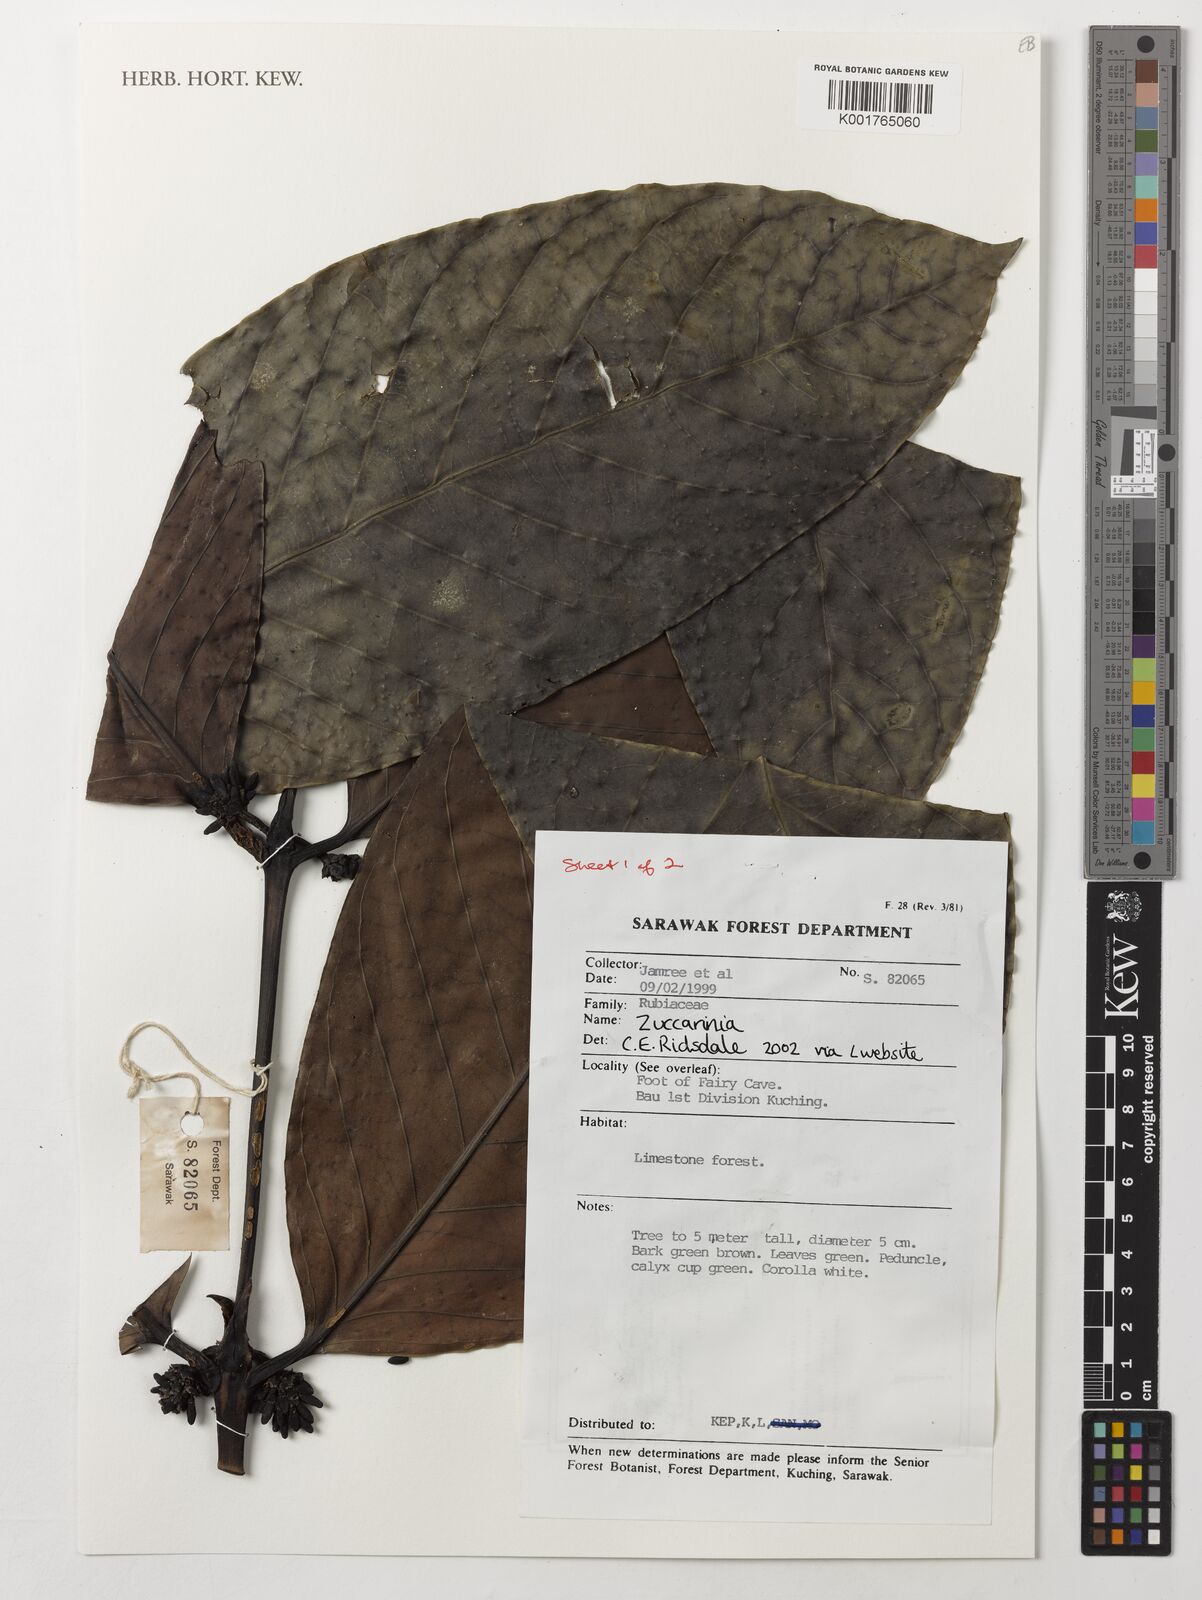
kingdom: Plantae
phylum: Tracheophyta
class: Magnoliopsida
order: Gentianales
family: Rubiaceae
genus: Zuccarinia
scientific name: Zuccarinia
